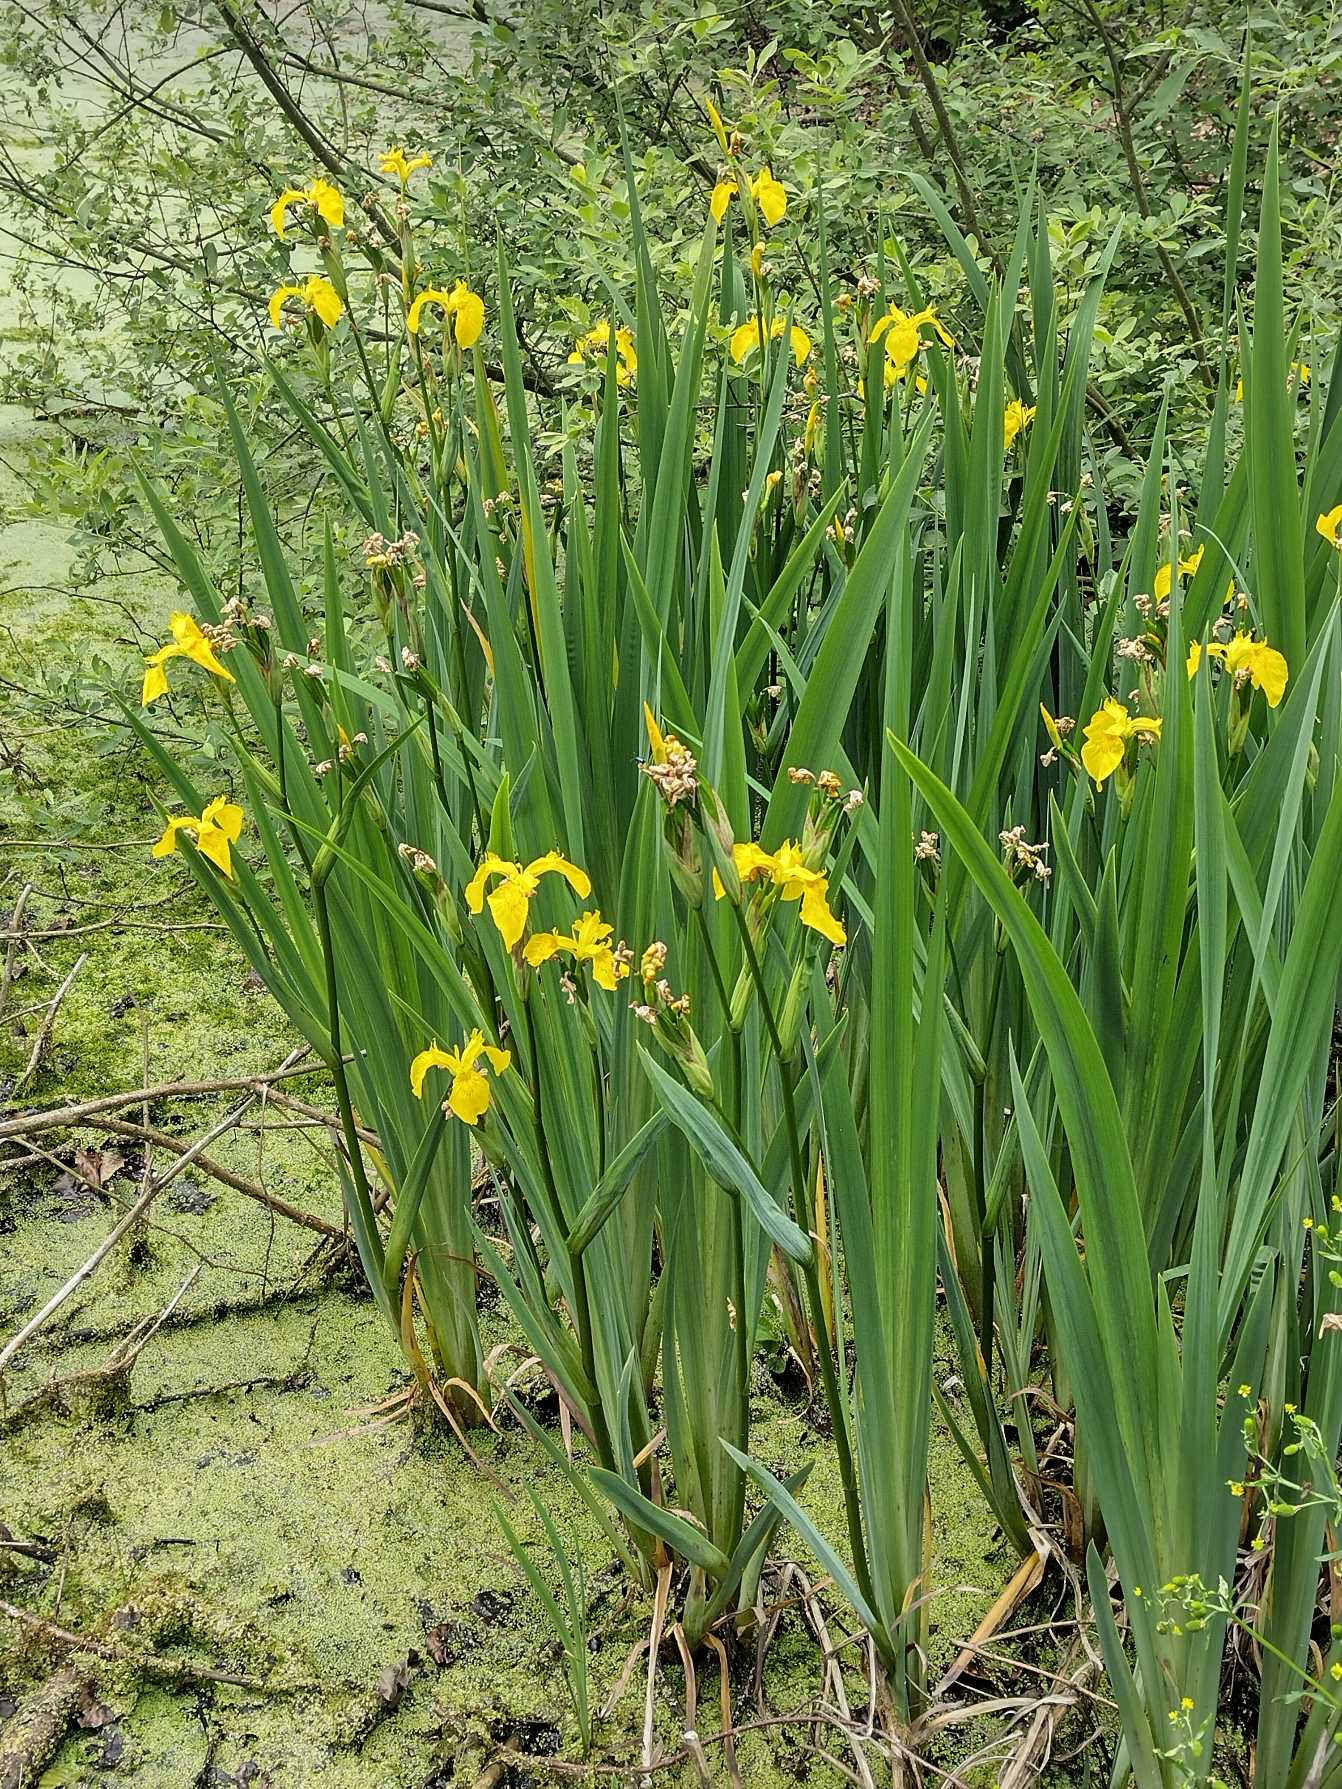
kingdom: Plantae
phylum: Tracheophyta
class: Liliopsida
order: Asparagales
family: Iridaceae
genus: Iris
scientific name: Iris pseudacorus
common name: Gul iris
